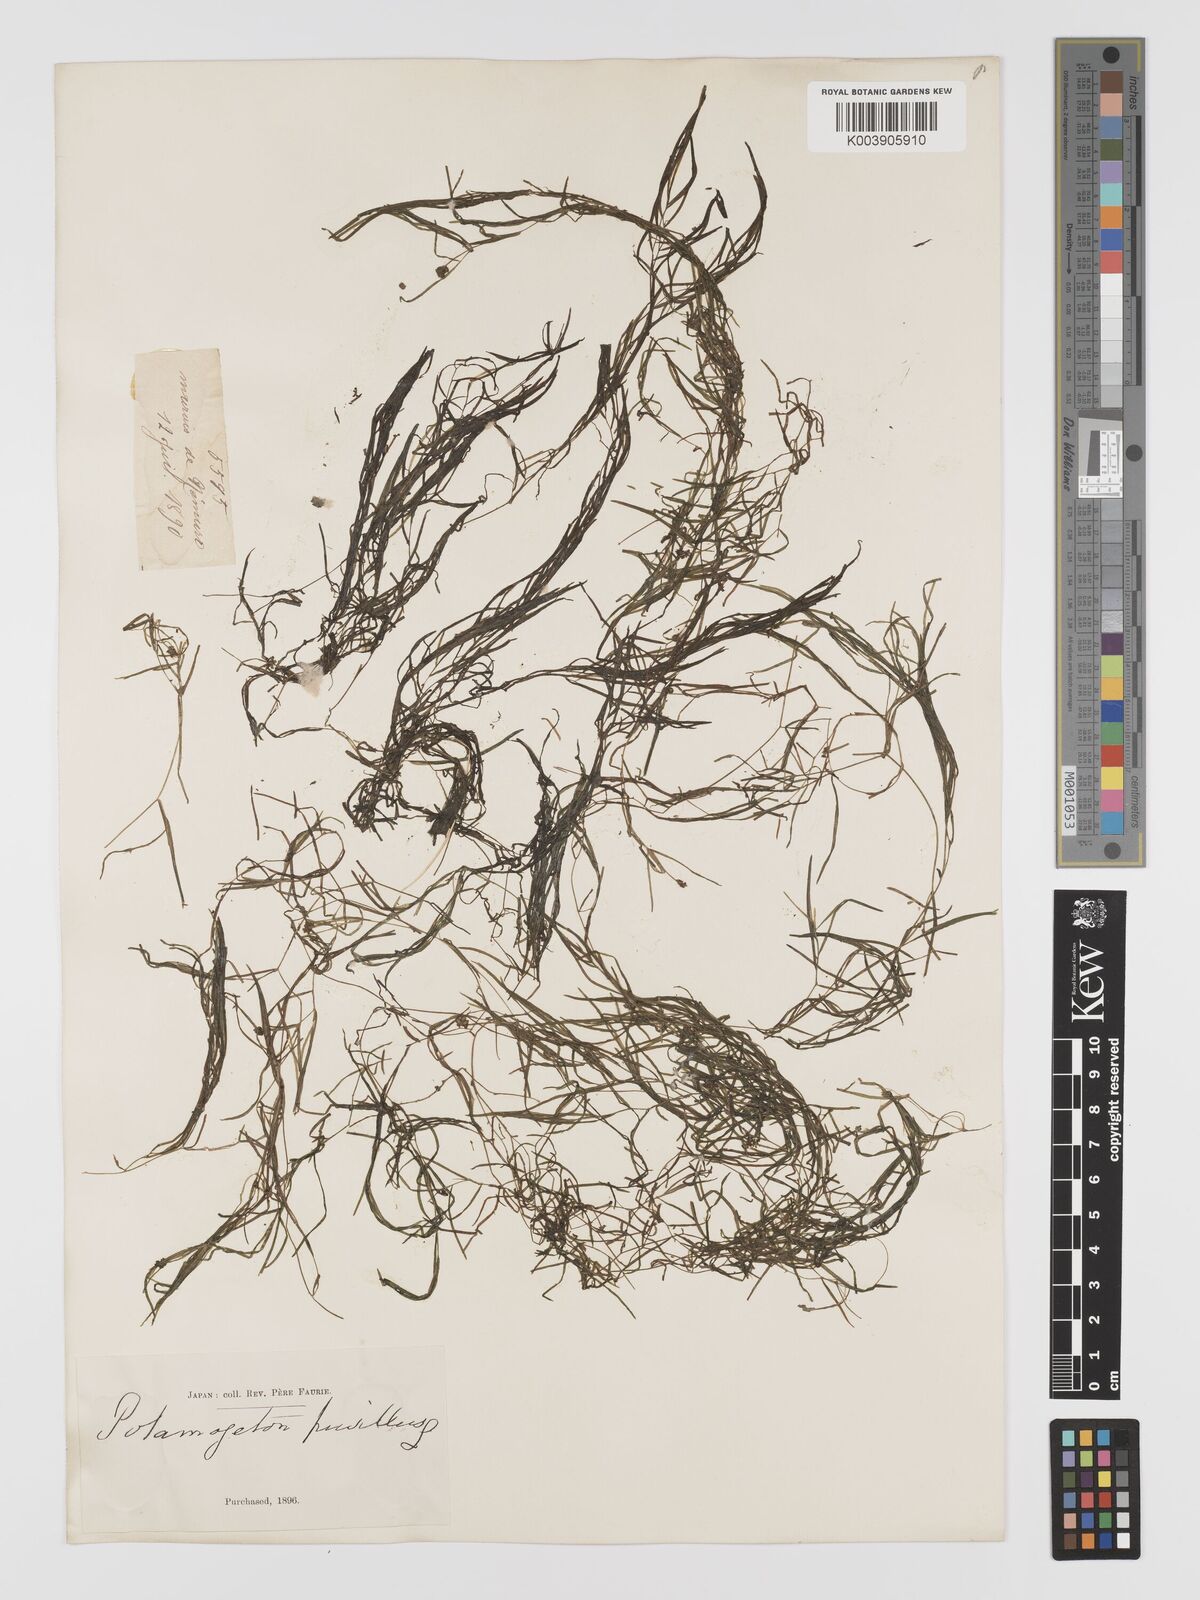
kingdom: Plantae
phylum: Tracheophyta
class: Liliopsida
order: Alismatales
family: Potamogetonaceae
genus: Potamogeton
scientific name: Potamogeton pusillus
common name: Lesser pondweed
